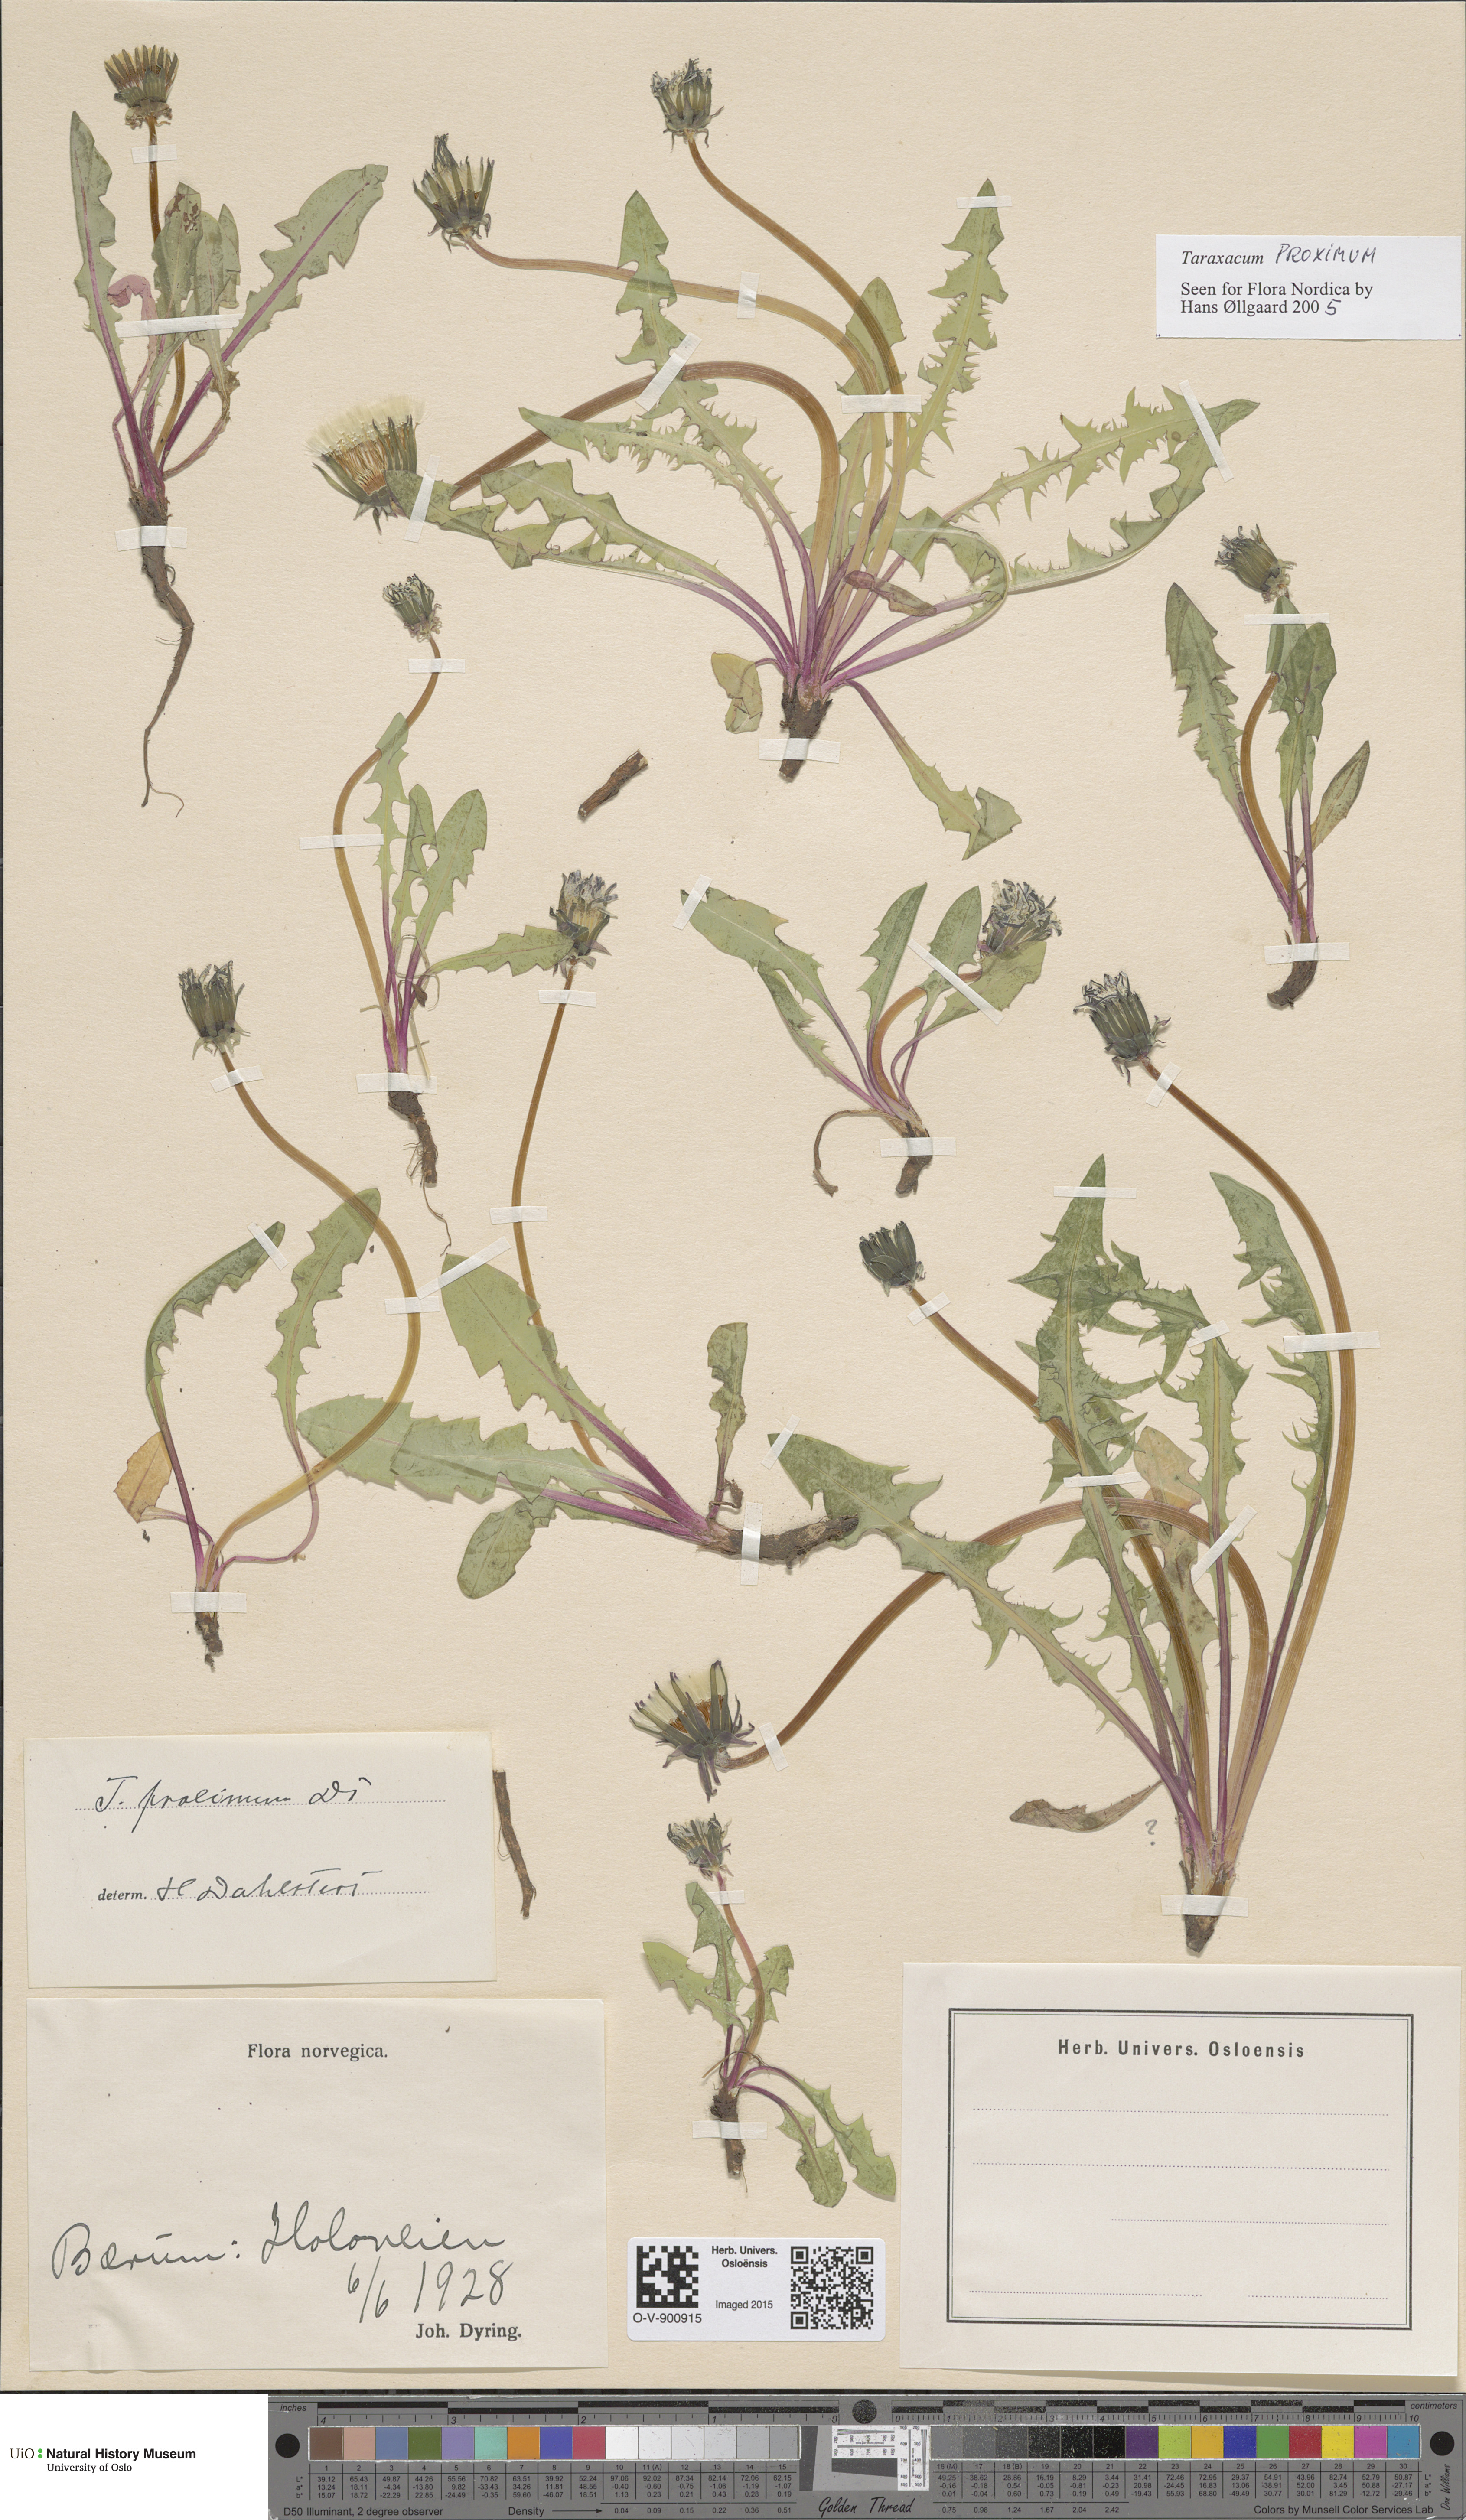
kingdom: Plantae
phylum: Tracheophyta
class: Magnoliopsida
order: Asterales
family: Asteraceae
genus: Taraxacum
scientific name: Taraxacum proximum
